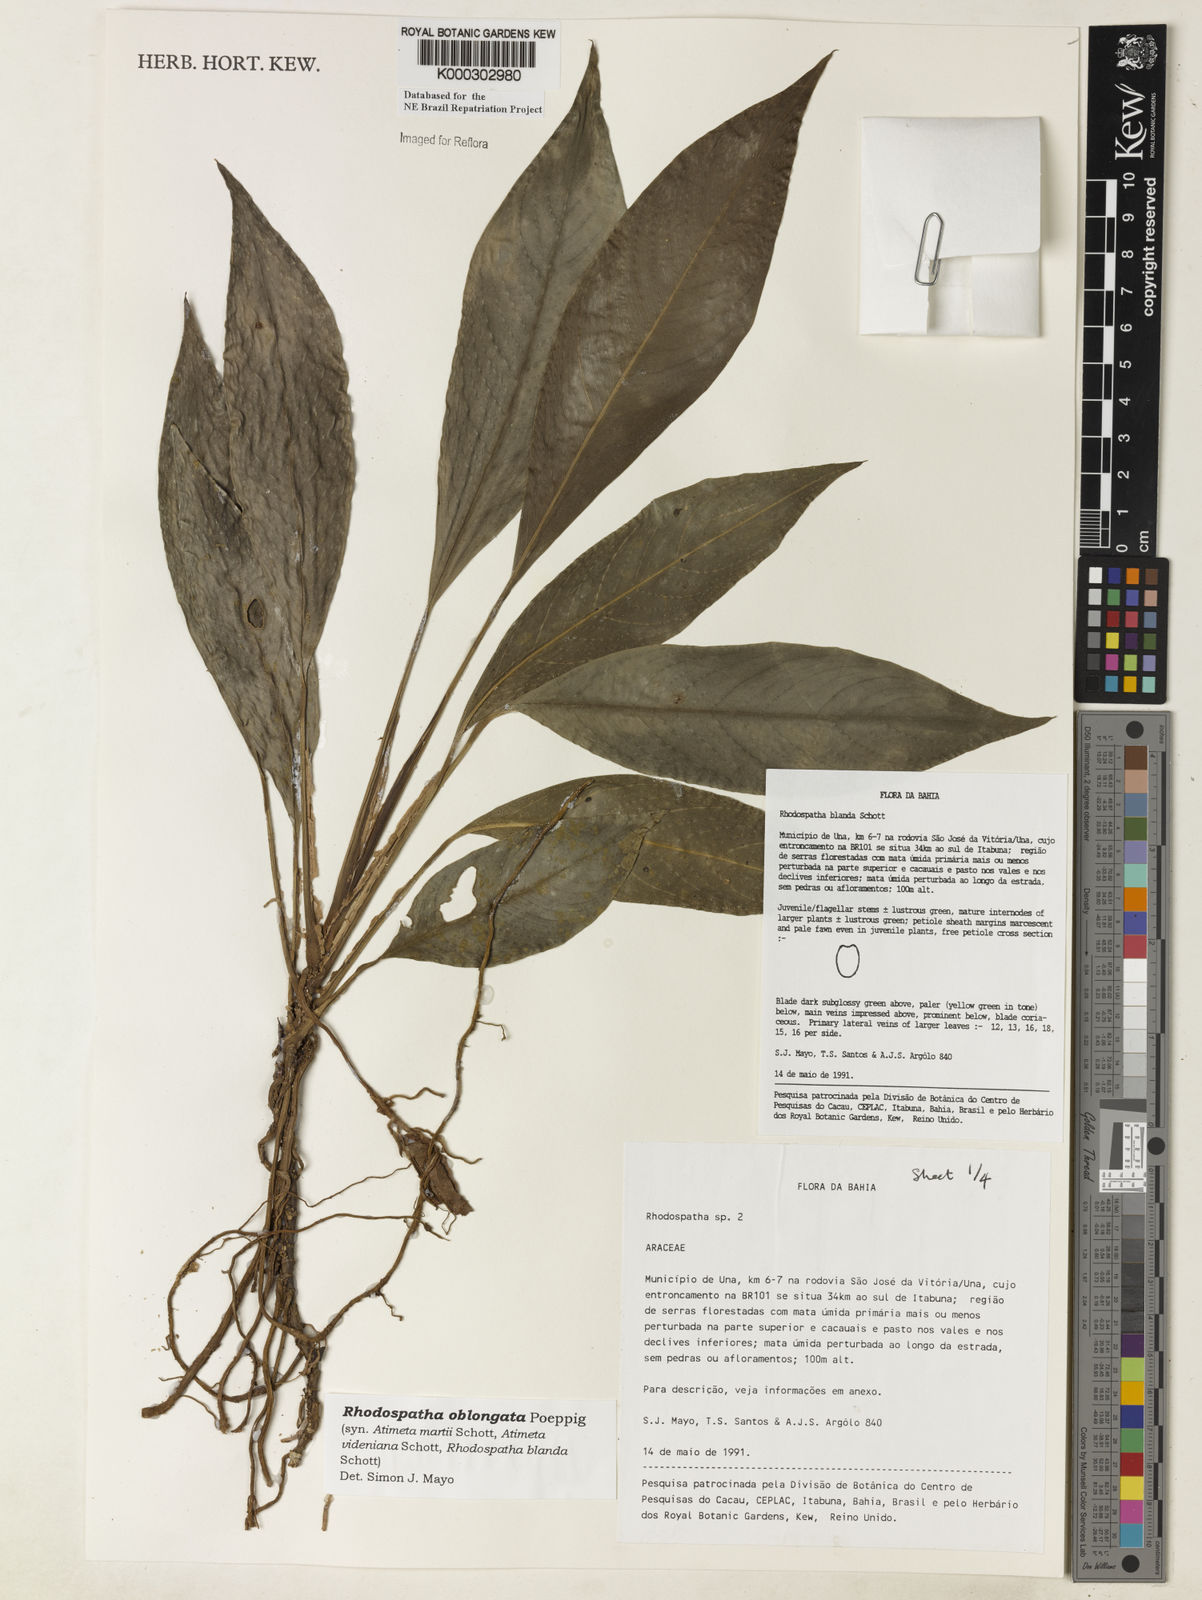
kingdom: Plantae
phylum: Tracheophyta
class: Liliopsida
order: Alismatales
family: Araceae
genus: Rhodospatha
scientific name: Rhodospatha oblongata
